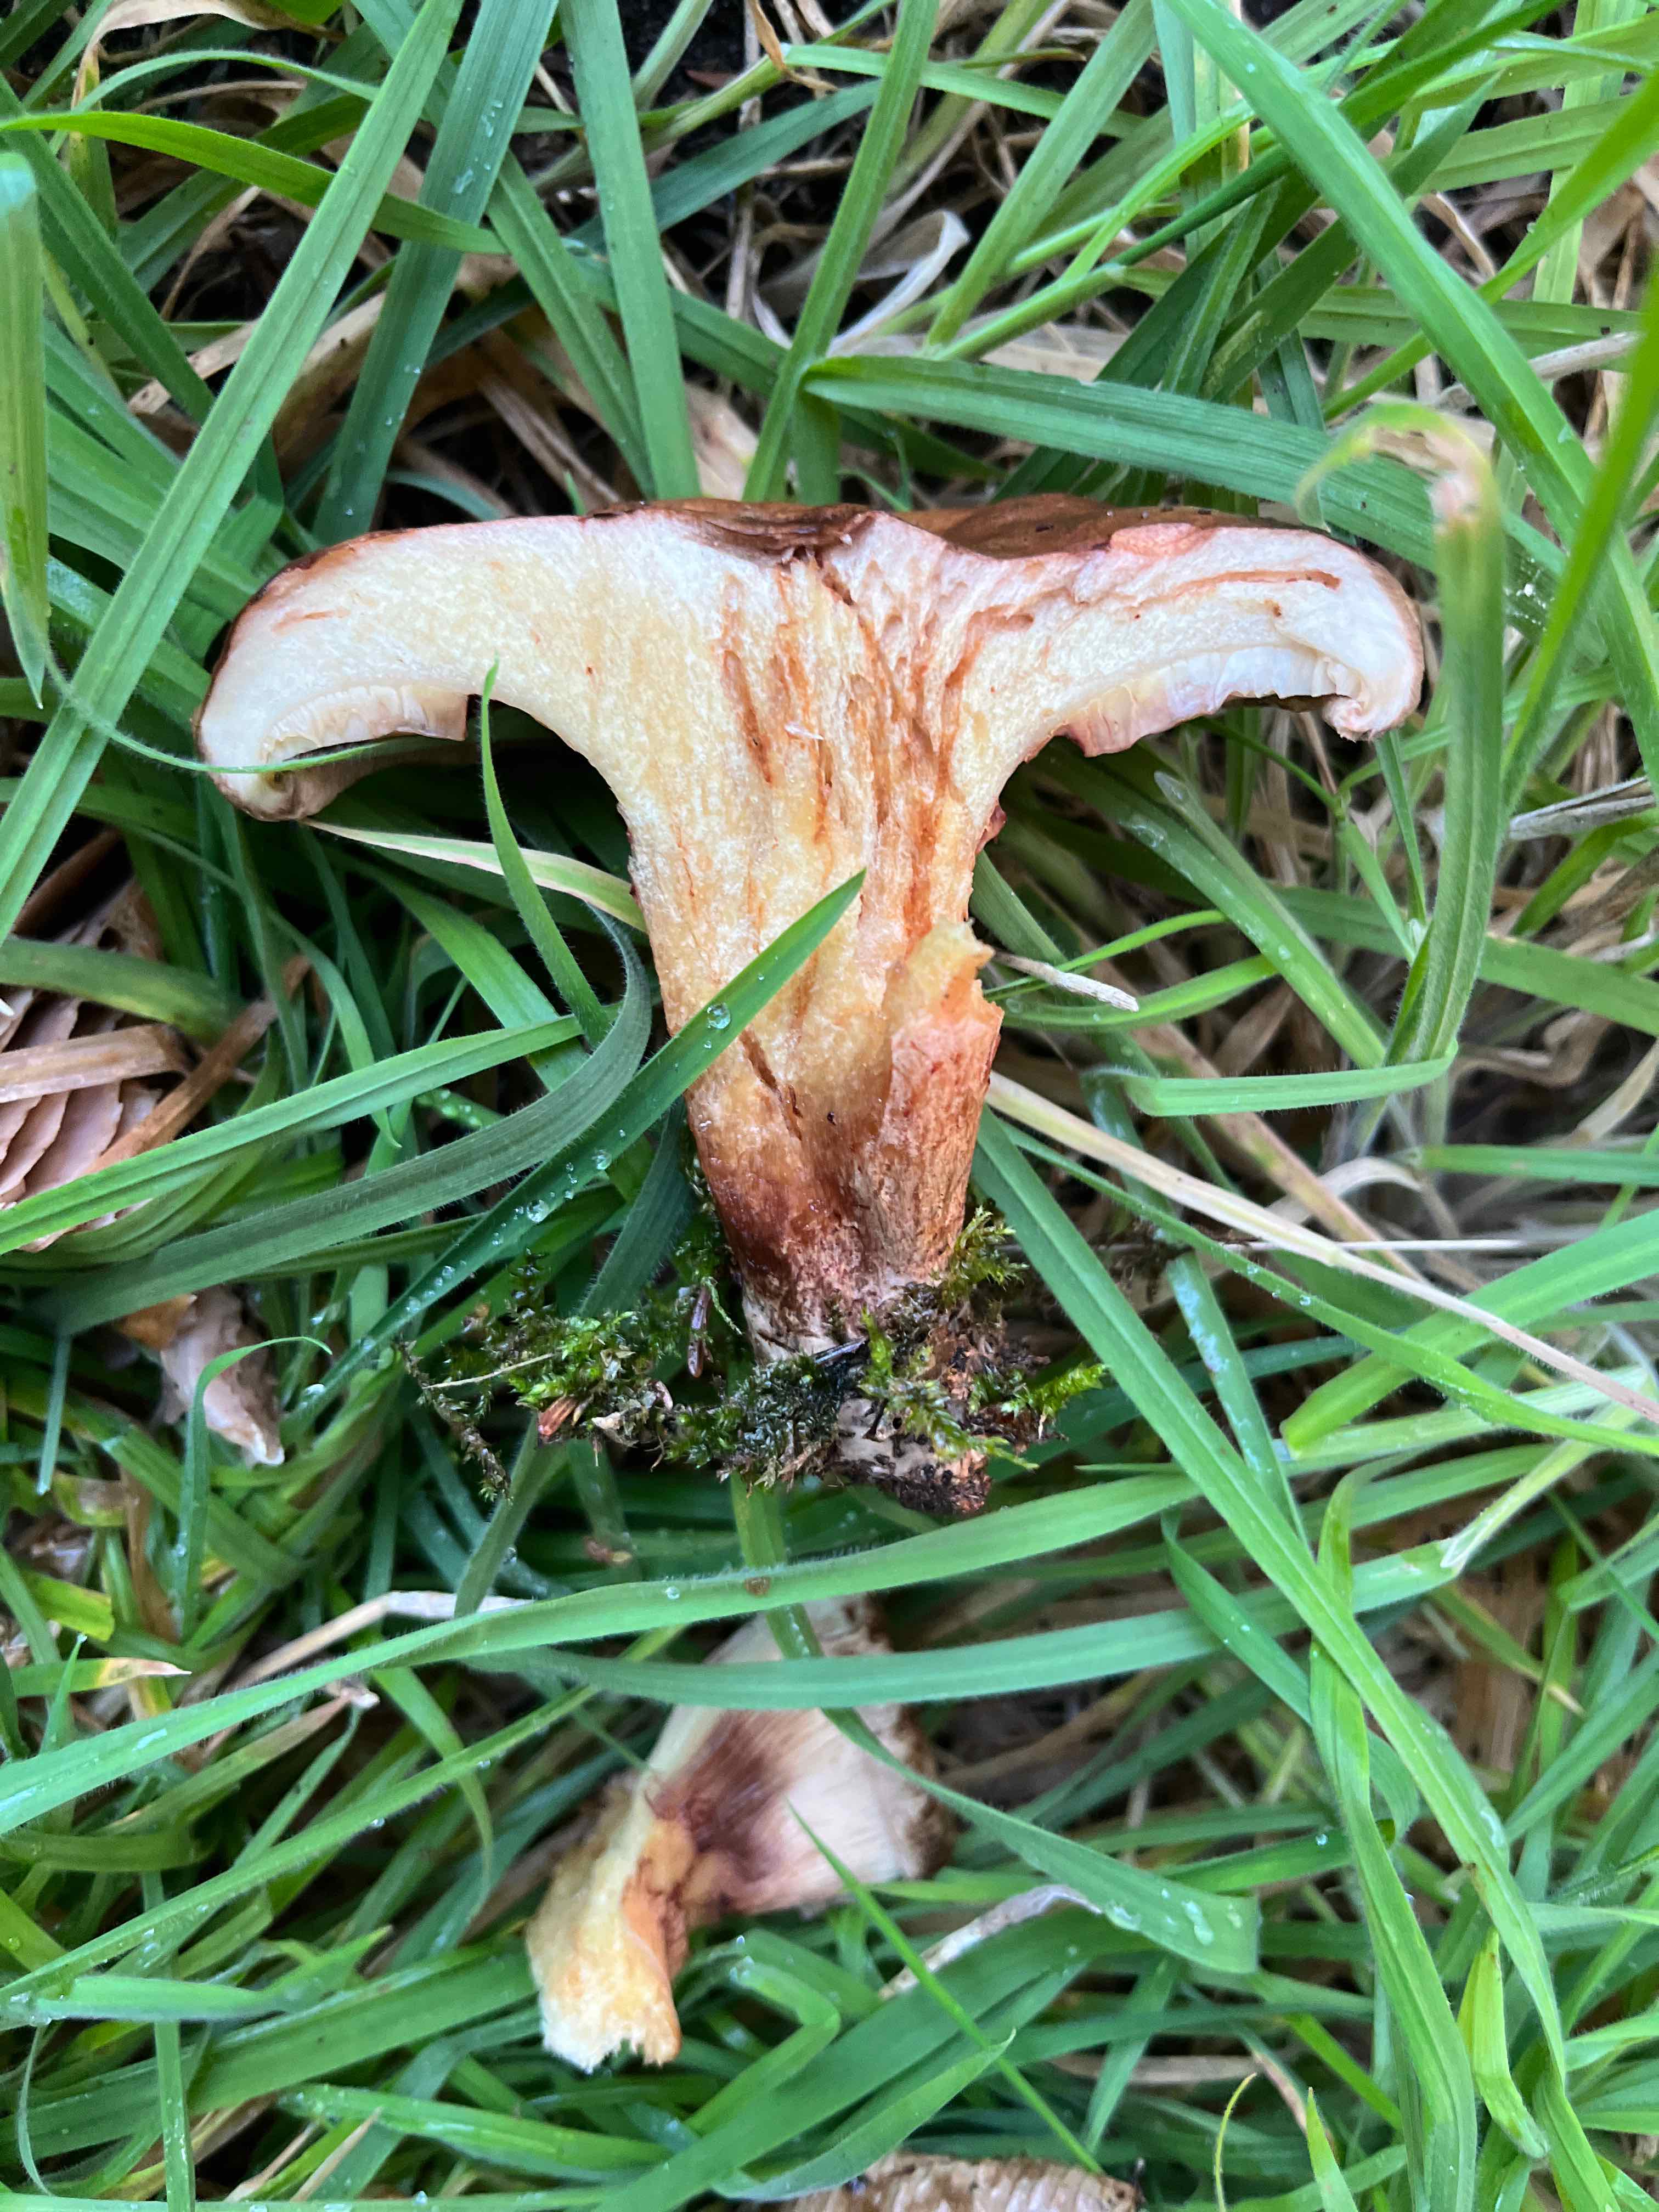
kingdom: Fungi
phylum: Basidiomycota
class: Agaricomycetes
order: Boletales
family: Paxillaceae
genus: Paxillus
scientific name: Paxillus involutus
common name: almindelig netbladhat
